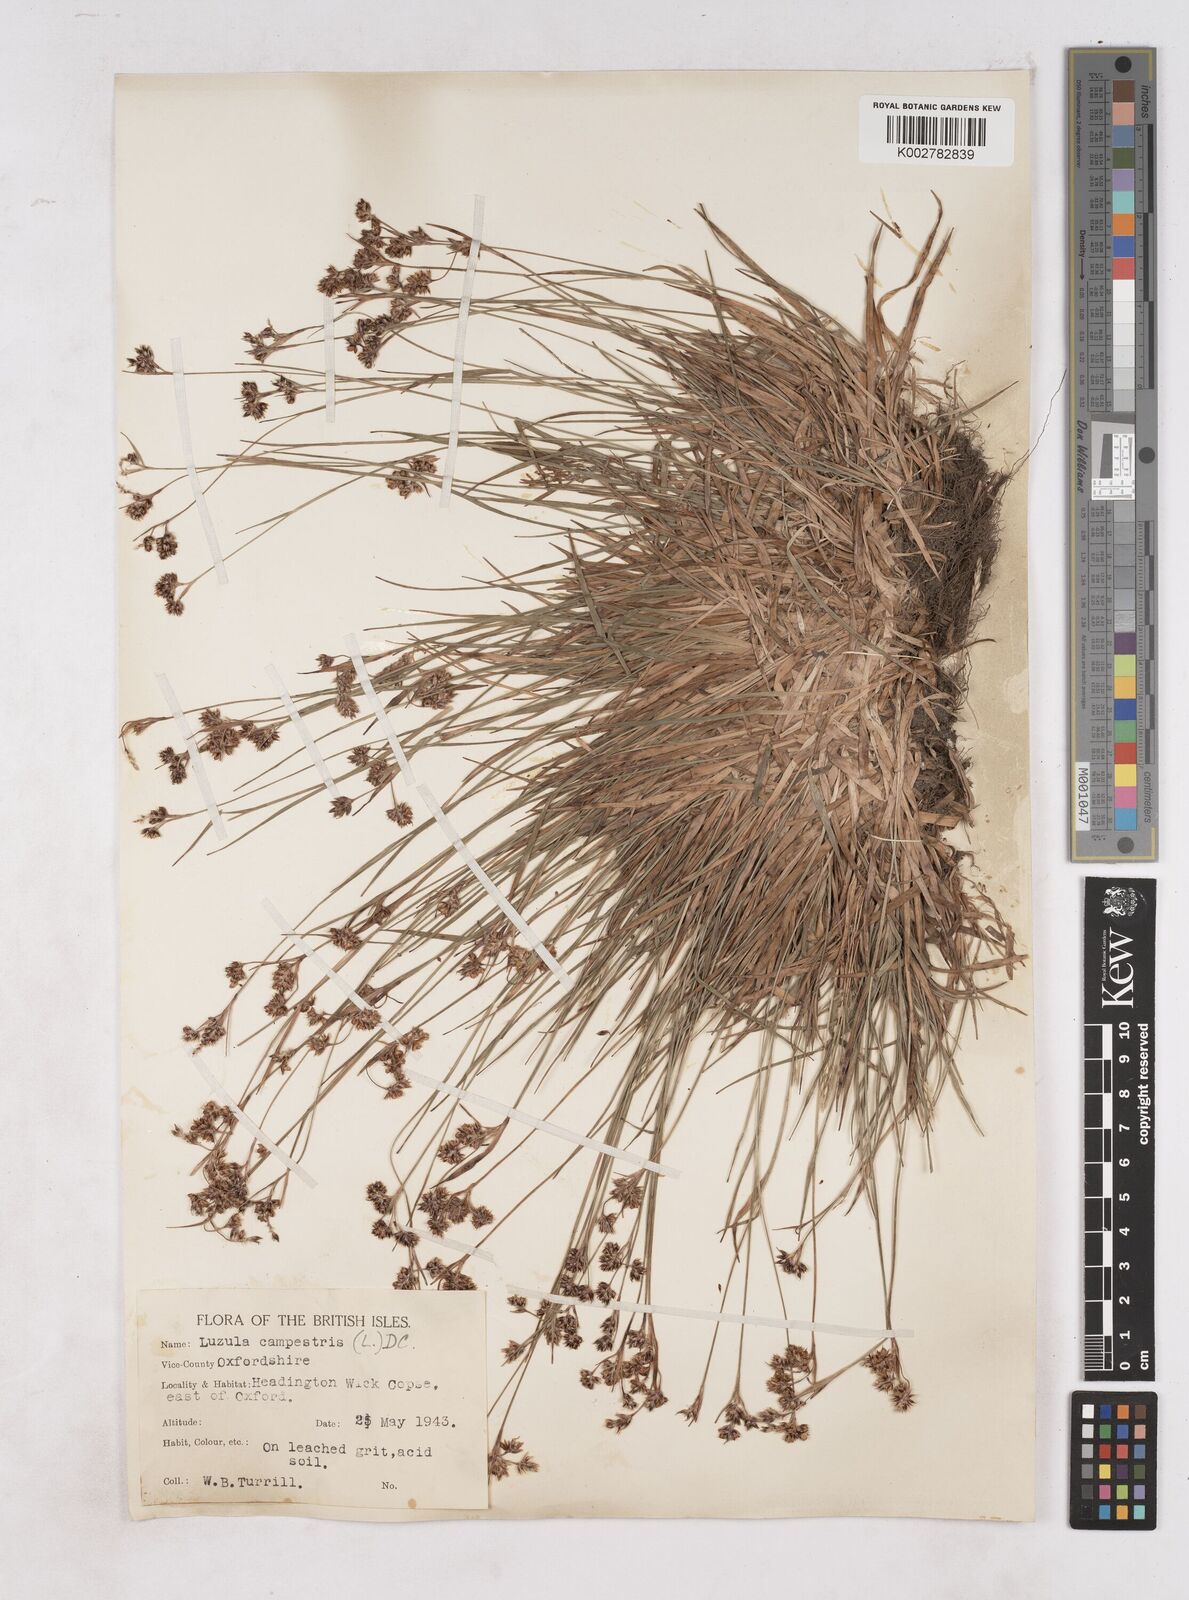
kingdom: Plantae
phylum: Tracheophyta
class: Liliopsida
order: Poales
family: Juncaceae
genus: Luzula
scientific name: Luzula campestris
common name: Field wood-rush
